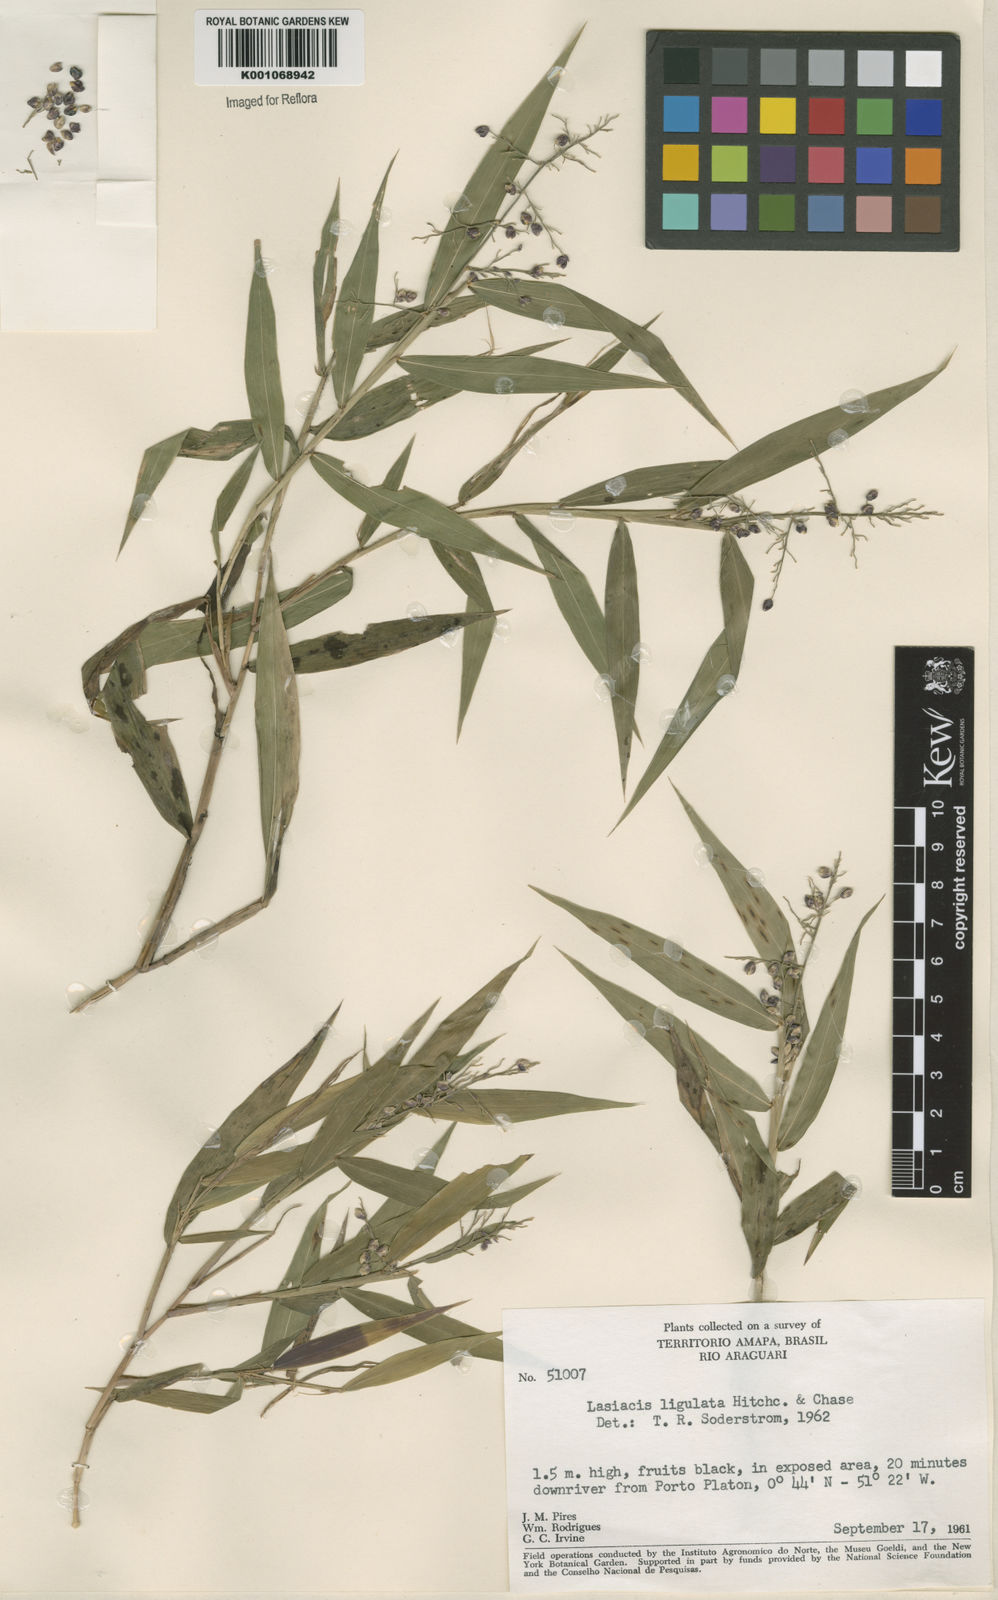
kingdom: Plantae
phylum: Tracheophyta
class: Liliopsida
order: Poales
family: Poaceae
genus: Lasiacis
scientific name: Lasiacis ligulata
